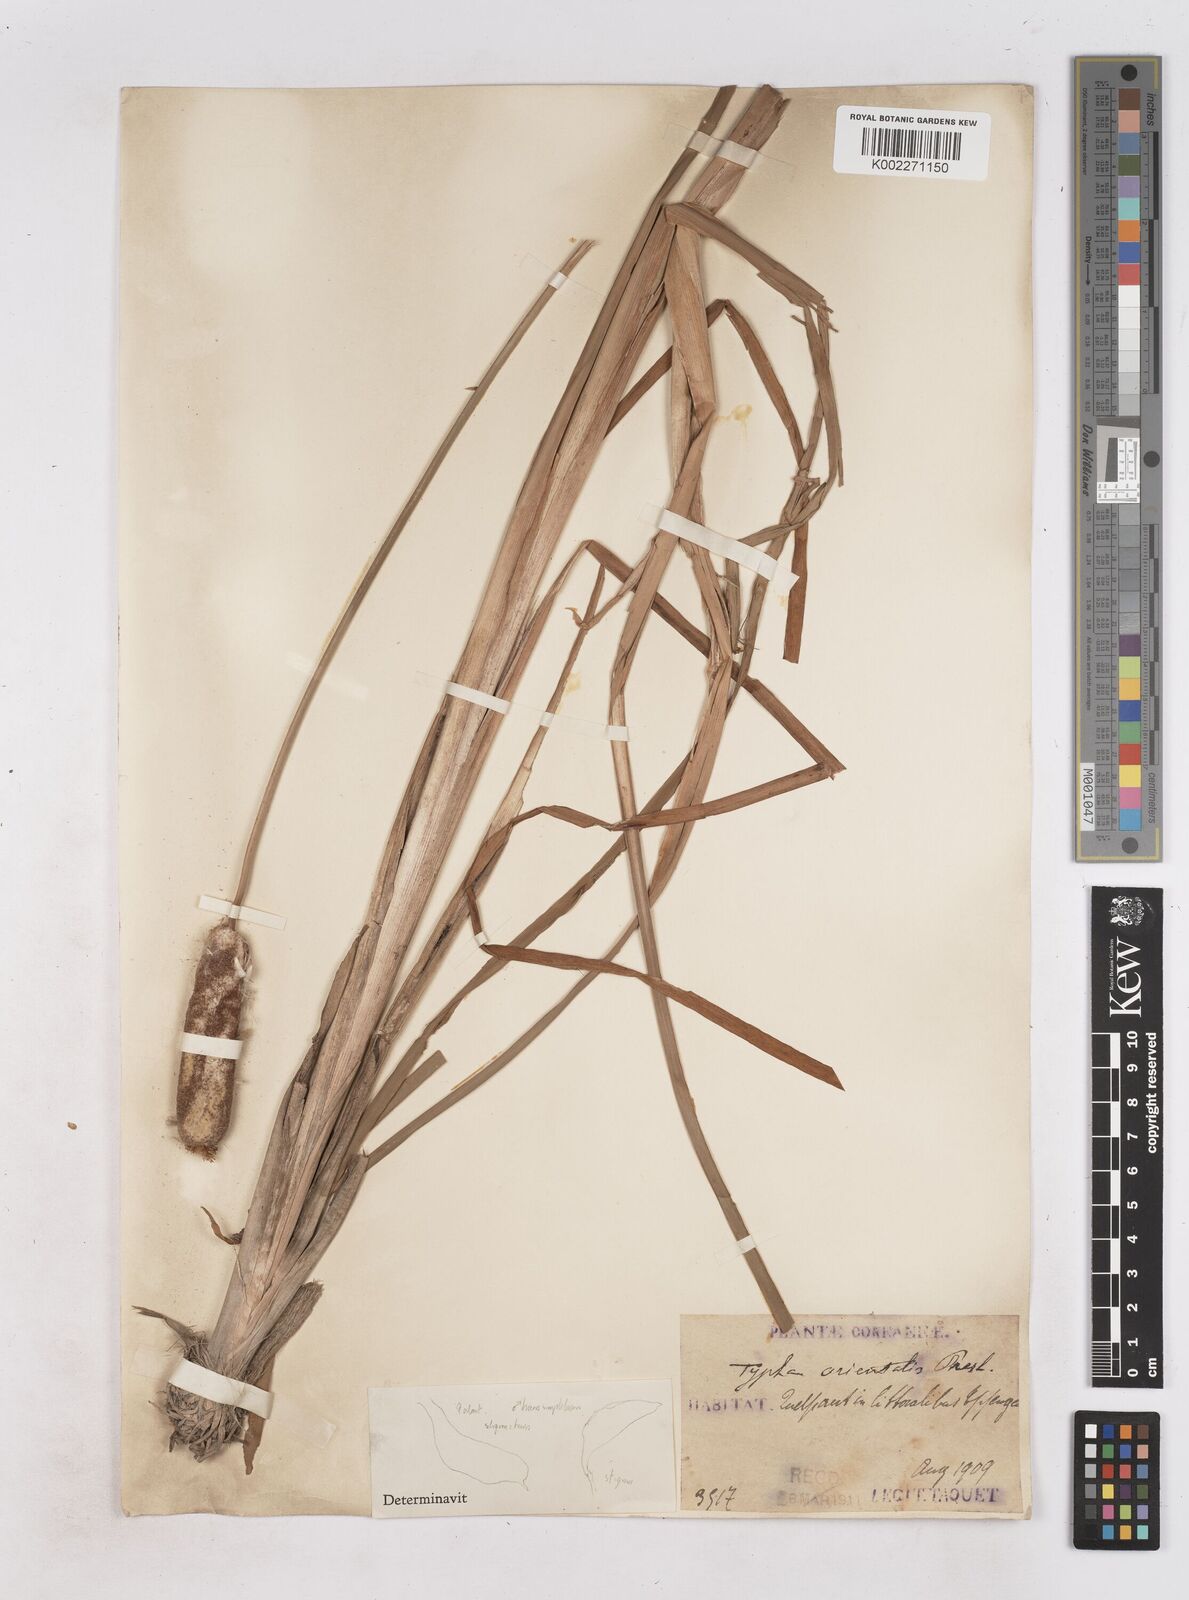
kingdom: Plantae
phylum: Tracheophyta
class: Liliopsida
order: Poales
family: Typhaceae
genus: Typha
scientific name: Typha
